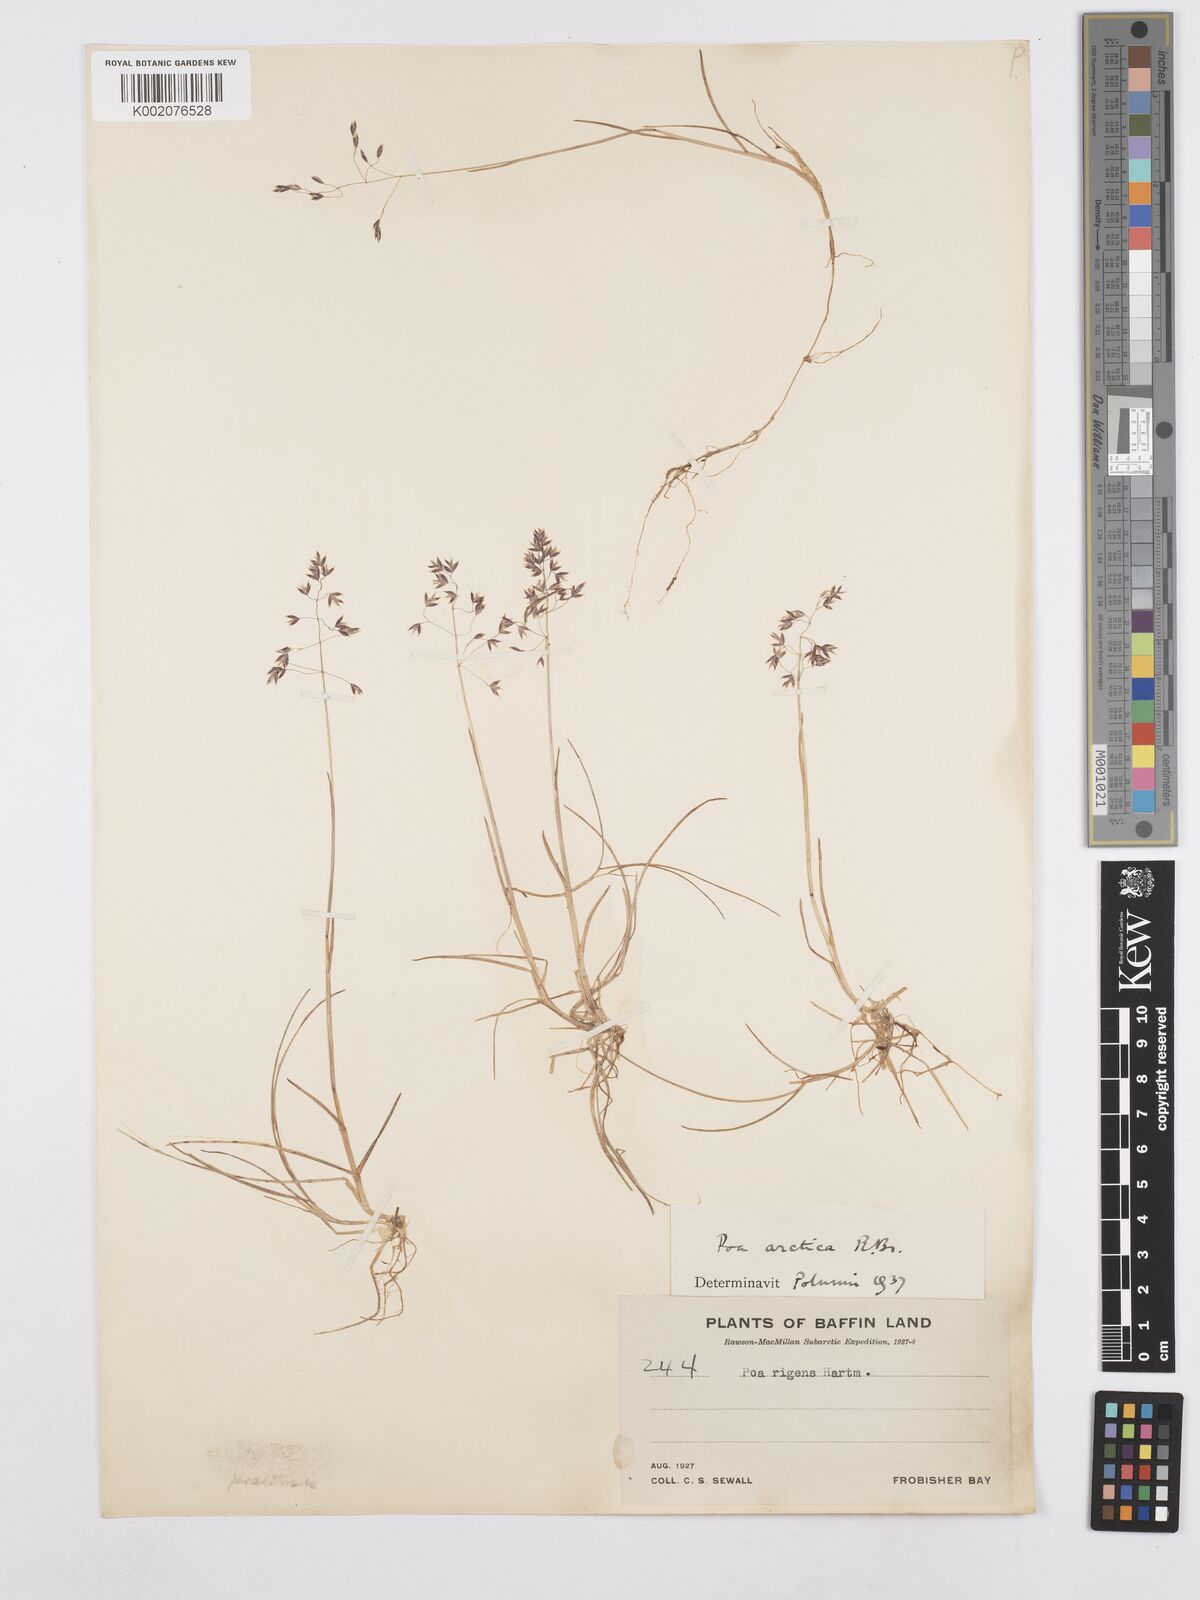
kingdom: Plantae
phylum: Tracheophyta
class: Liliopsida
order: Poales
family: Poaceae
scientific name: Poaceae
